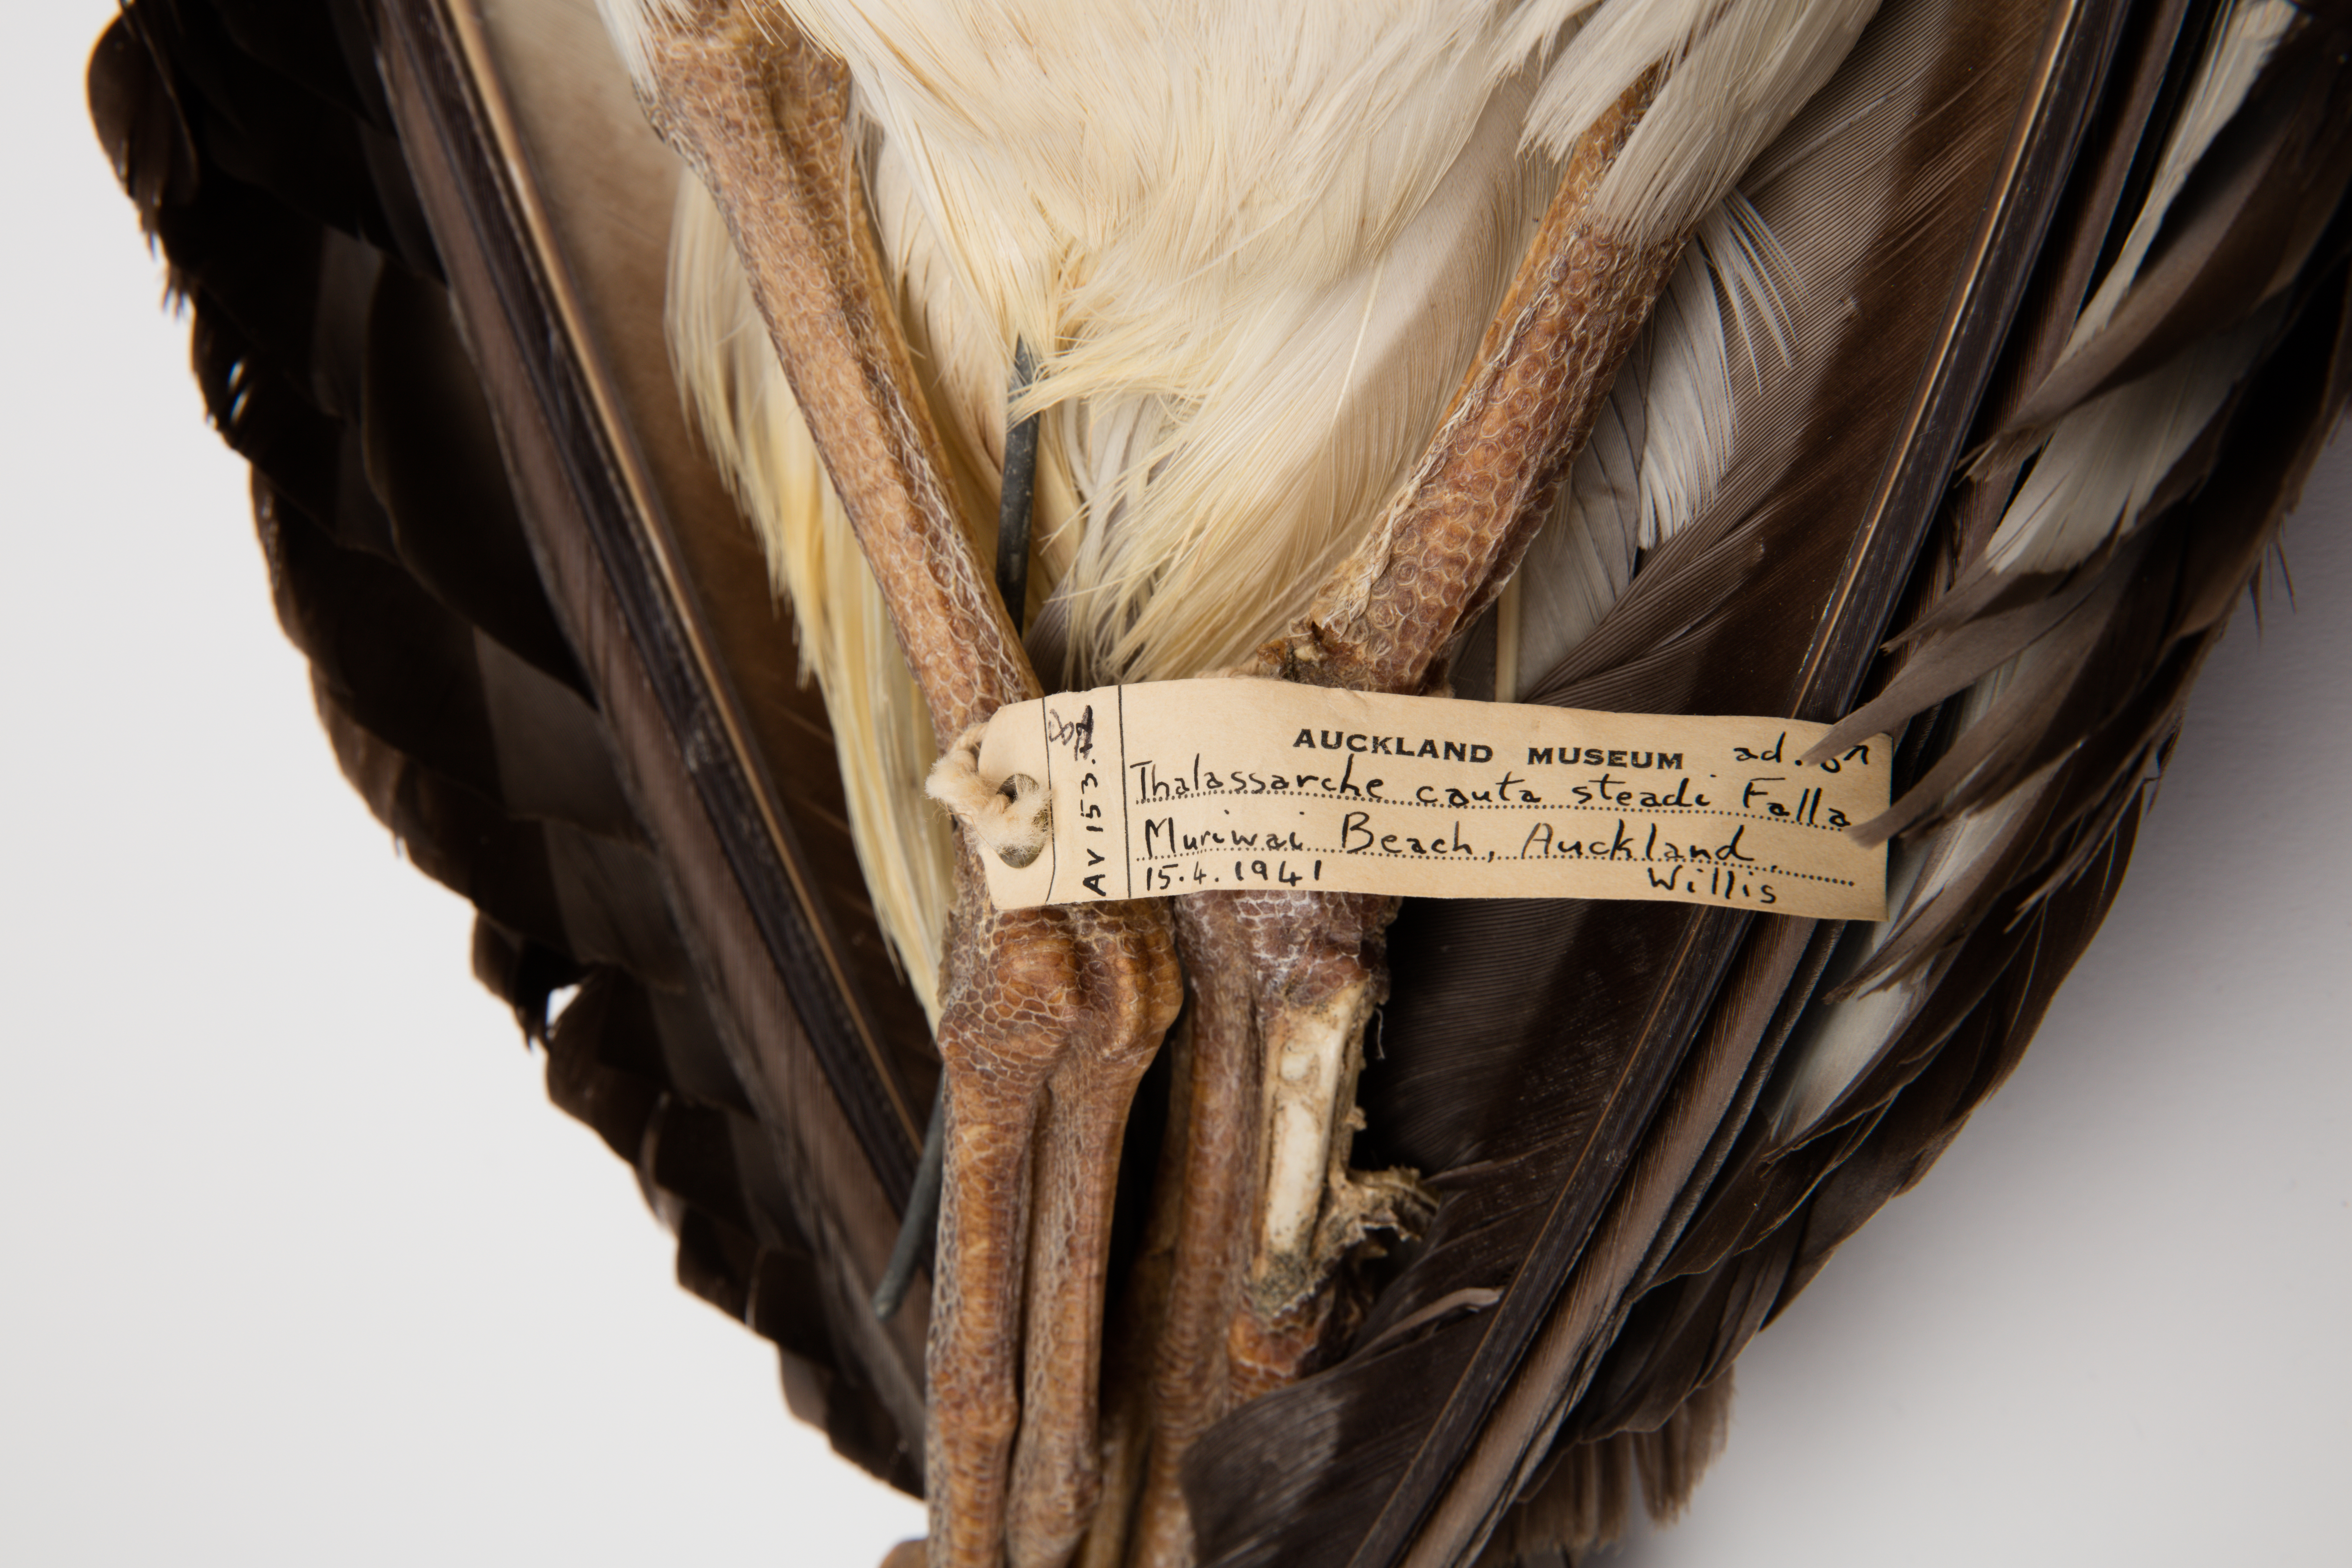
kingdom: Animalia
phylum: Chordata
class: Aves
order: Procellariiformes
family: Diomedeidae
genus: Thalassarche
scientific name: Thalassarche cauta
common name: Shy albatross
